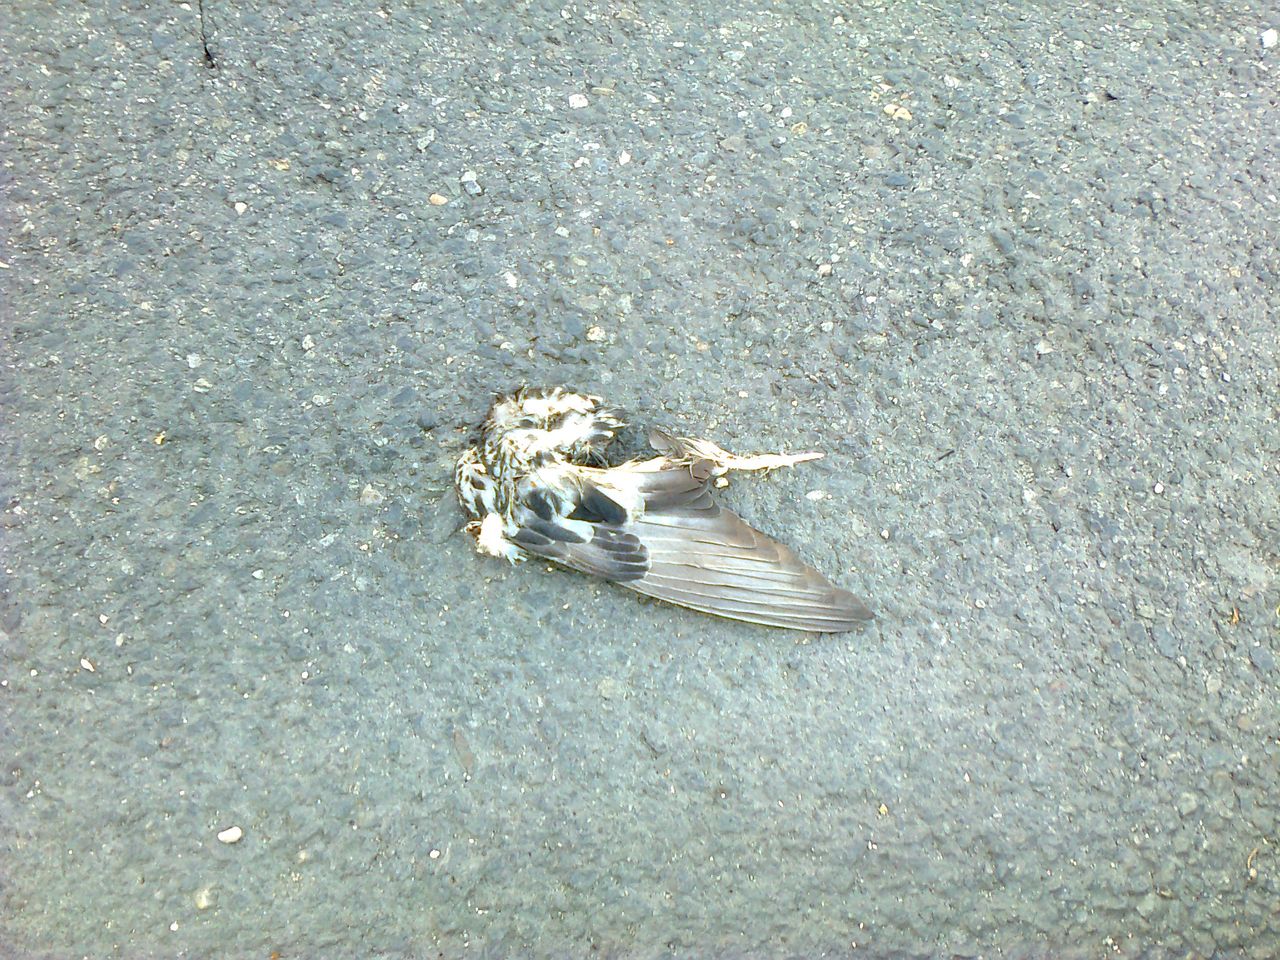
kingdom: Animalia
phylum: Chordata
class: Aves
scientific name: Aves
